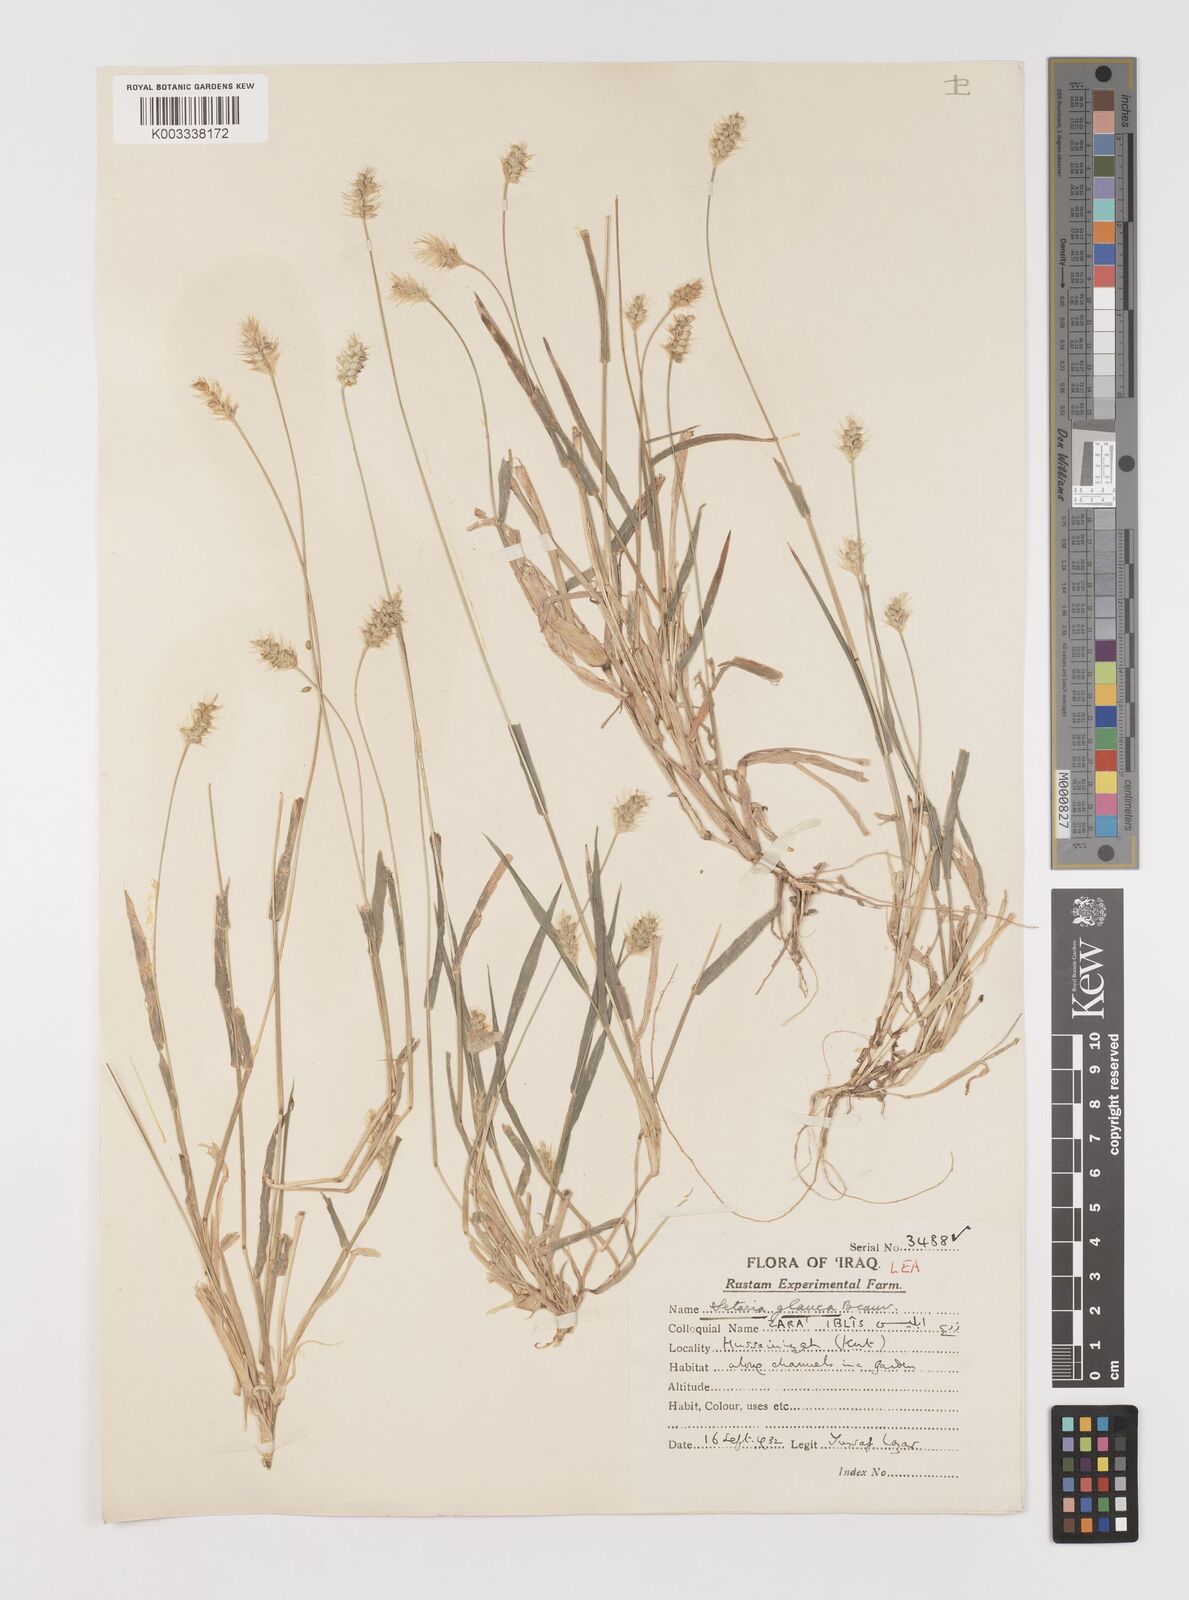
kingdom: Plantae
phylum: Tracheophyta
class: Liliopsida
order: Poales
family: Poaceae
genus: Setaria
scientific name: Setaria pumila
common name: Yellow bristle-grass
